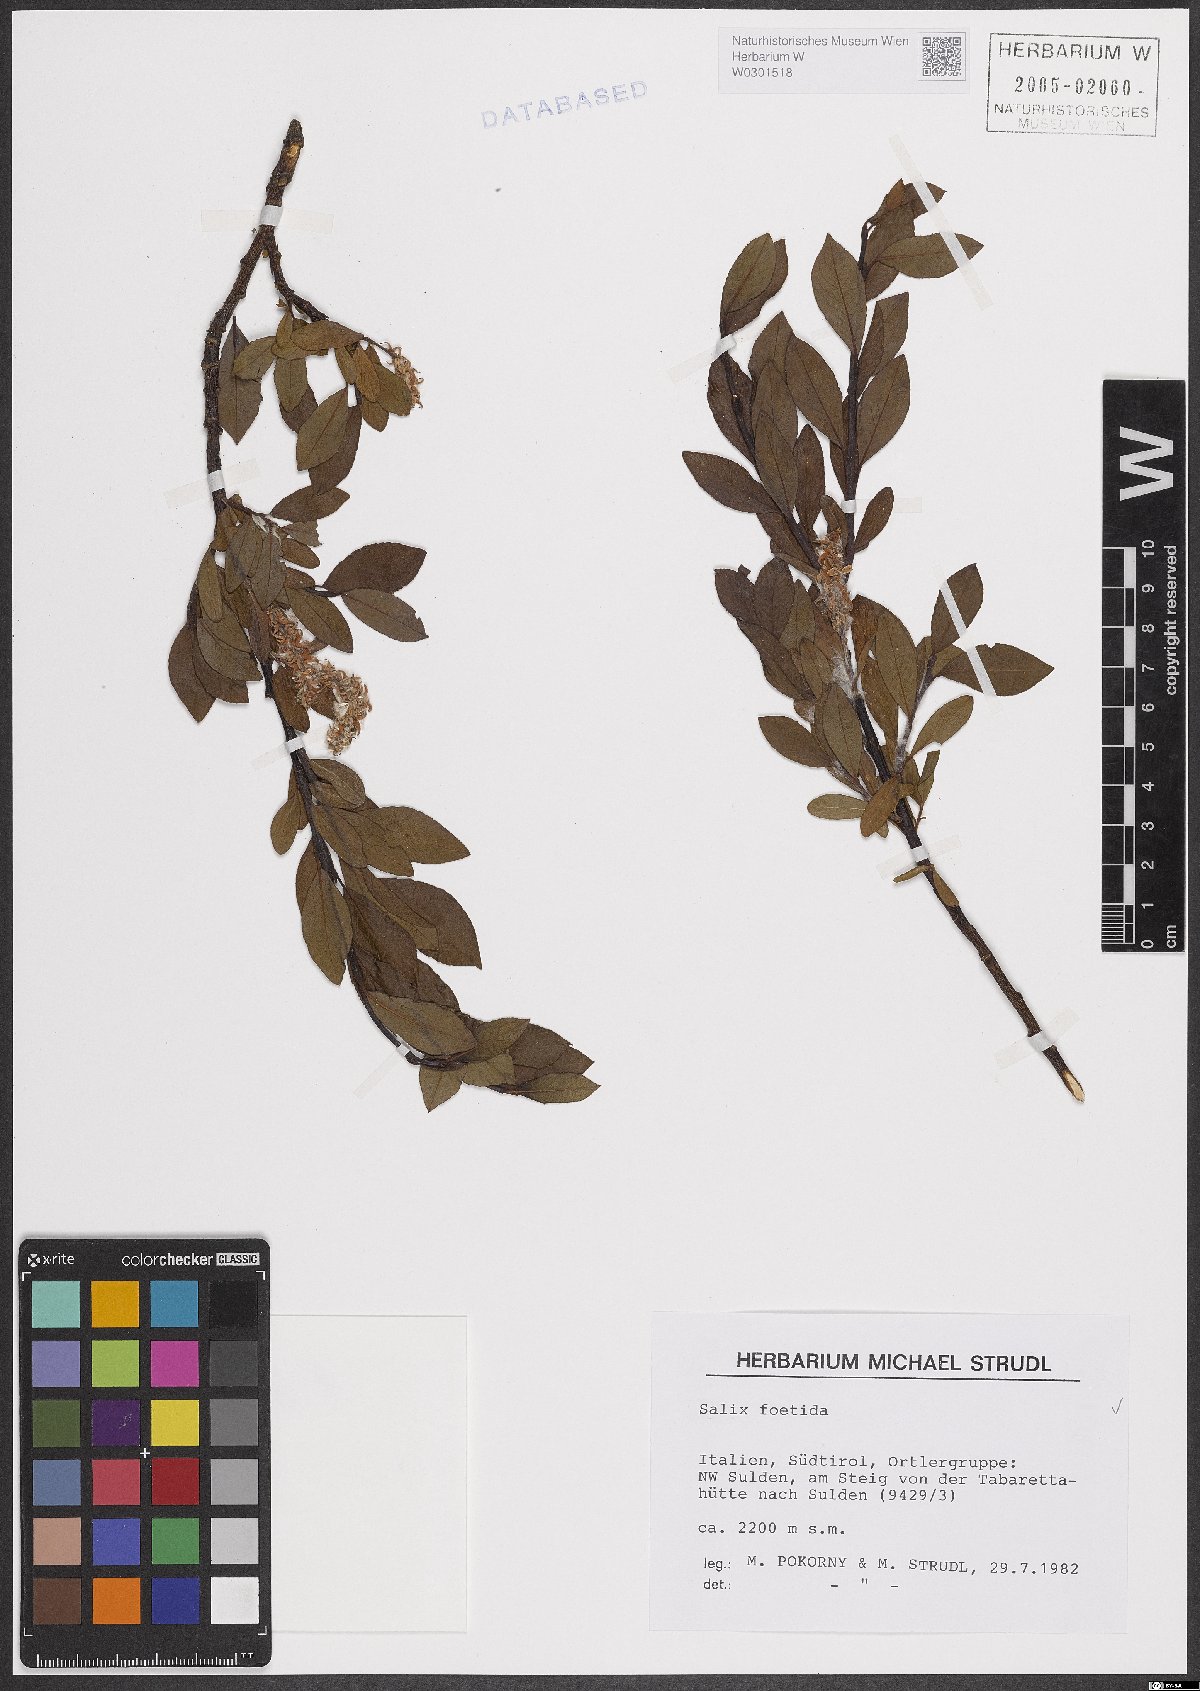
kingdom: Plantae
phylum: Tracheophyta
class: Magnoliopsida
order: Malpighiales
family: Salicaceae
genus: Salix
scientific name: Salix foetida
